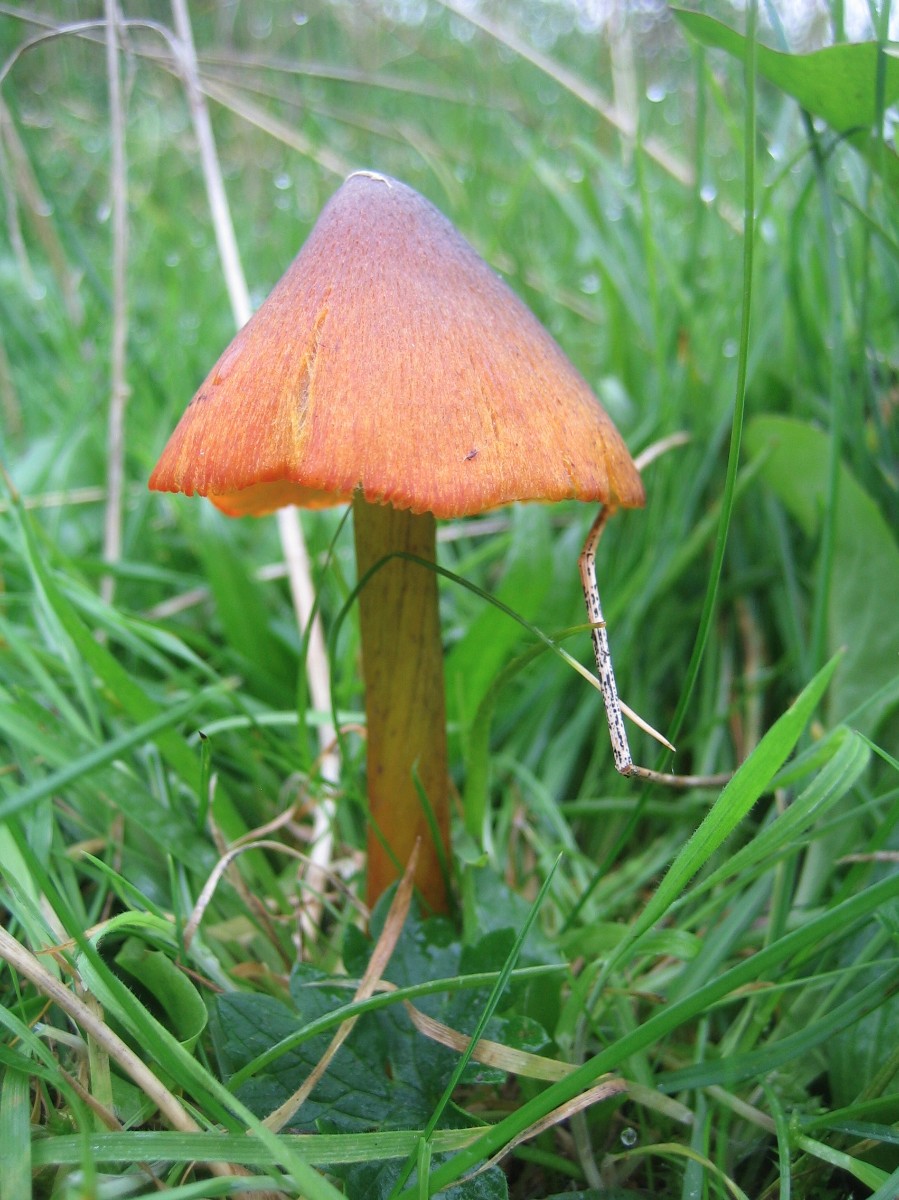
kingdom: Fungi
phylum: Basidiomycota
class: Agaricomycetes
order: Agaricales
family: Hygrophoraceae
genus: Hygrocybe
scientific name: Hygrocybe conica
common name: kegle-vokshat
